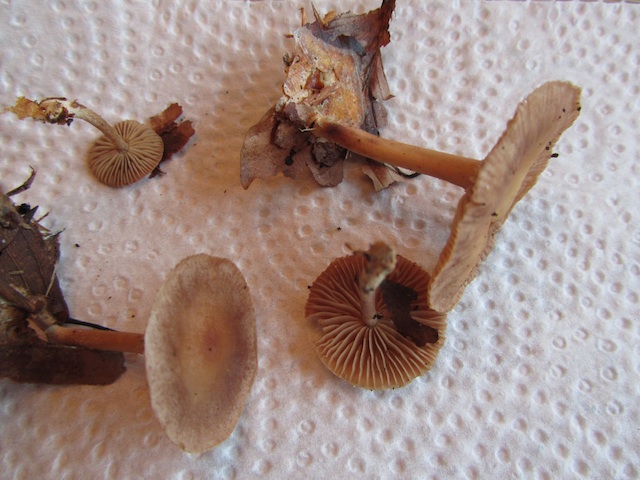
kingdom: Fungi
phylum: Basidiomycota
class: Agaricomycetes
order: Agaricales
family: Omphalotaceae
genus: Gymnopus
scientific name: Gymnopus fuscopurpureus
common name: purpurbrun fladhat
